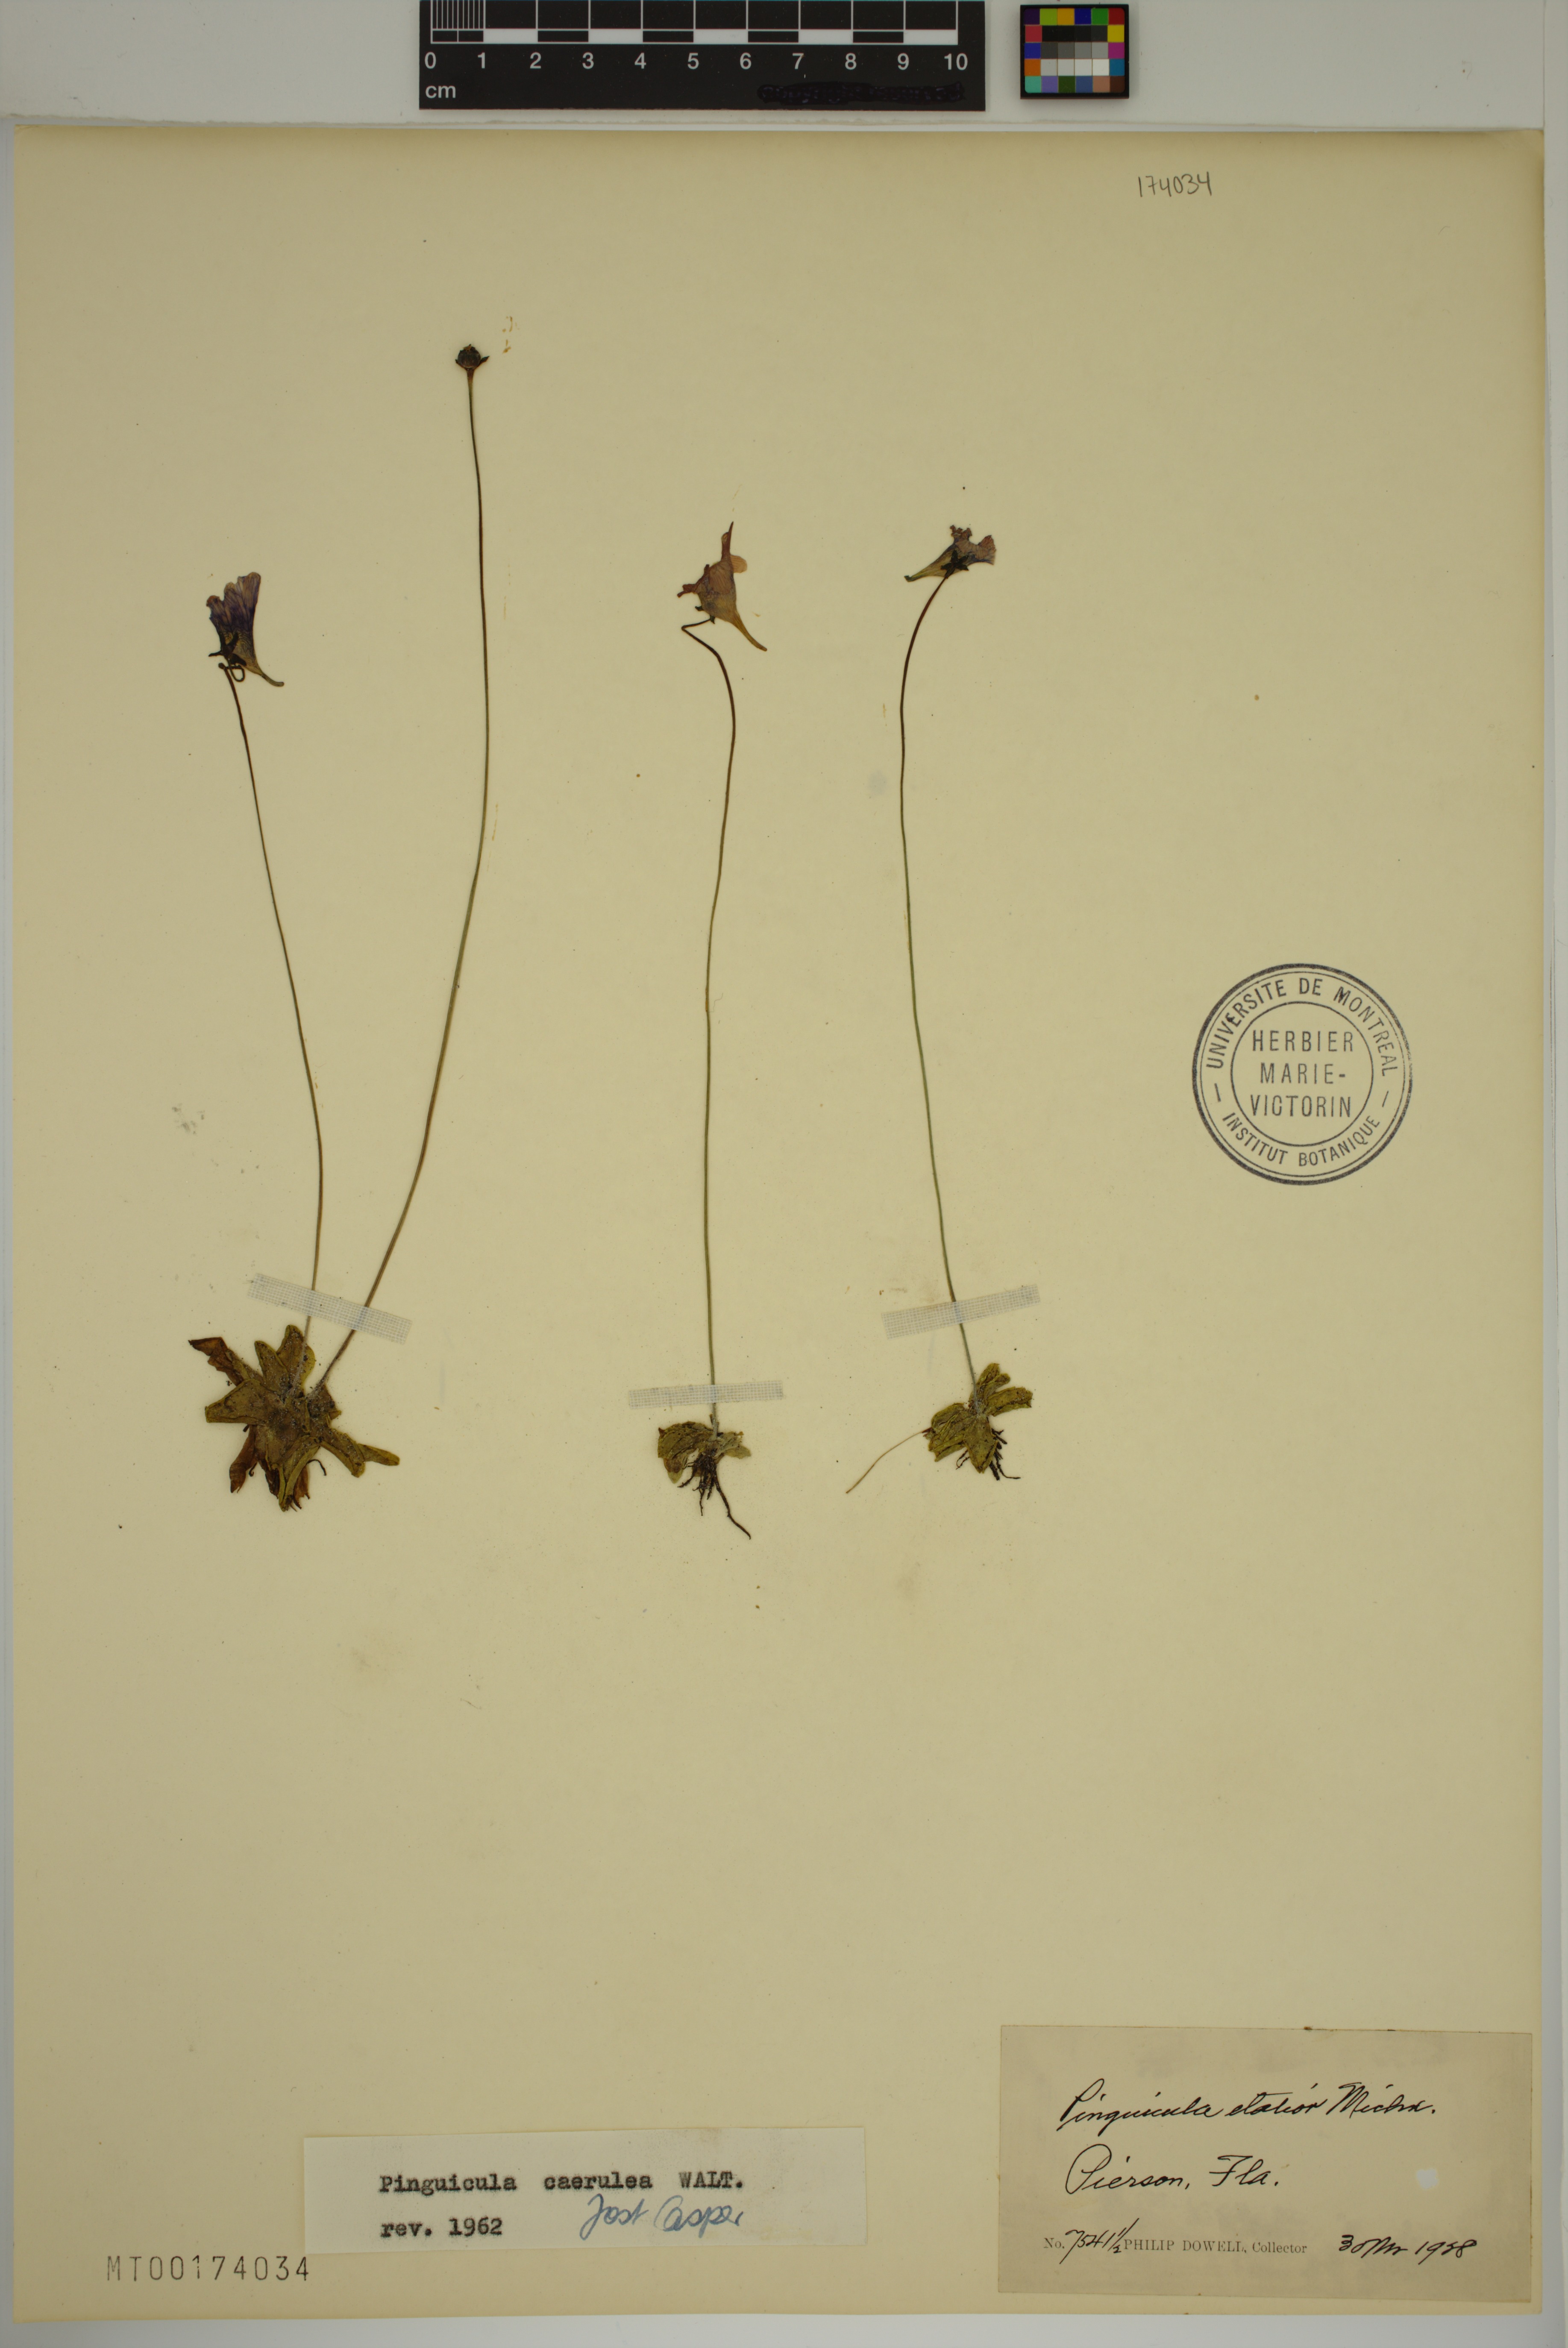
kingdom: Plantae
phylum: Tracheophyta
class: Magnoliopsida
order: Lamiales
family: Lentibulariaceae
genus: Pinguicula
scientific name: Pinguicula caerulea
